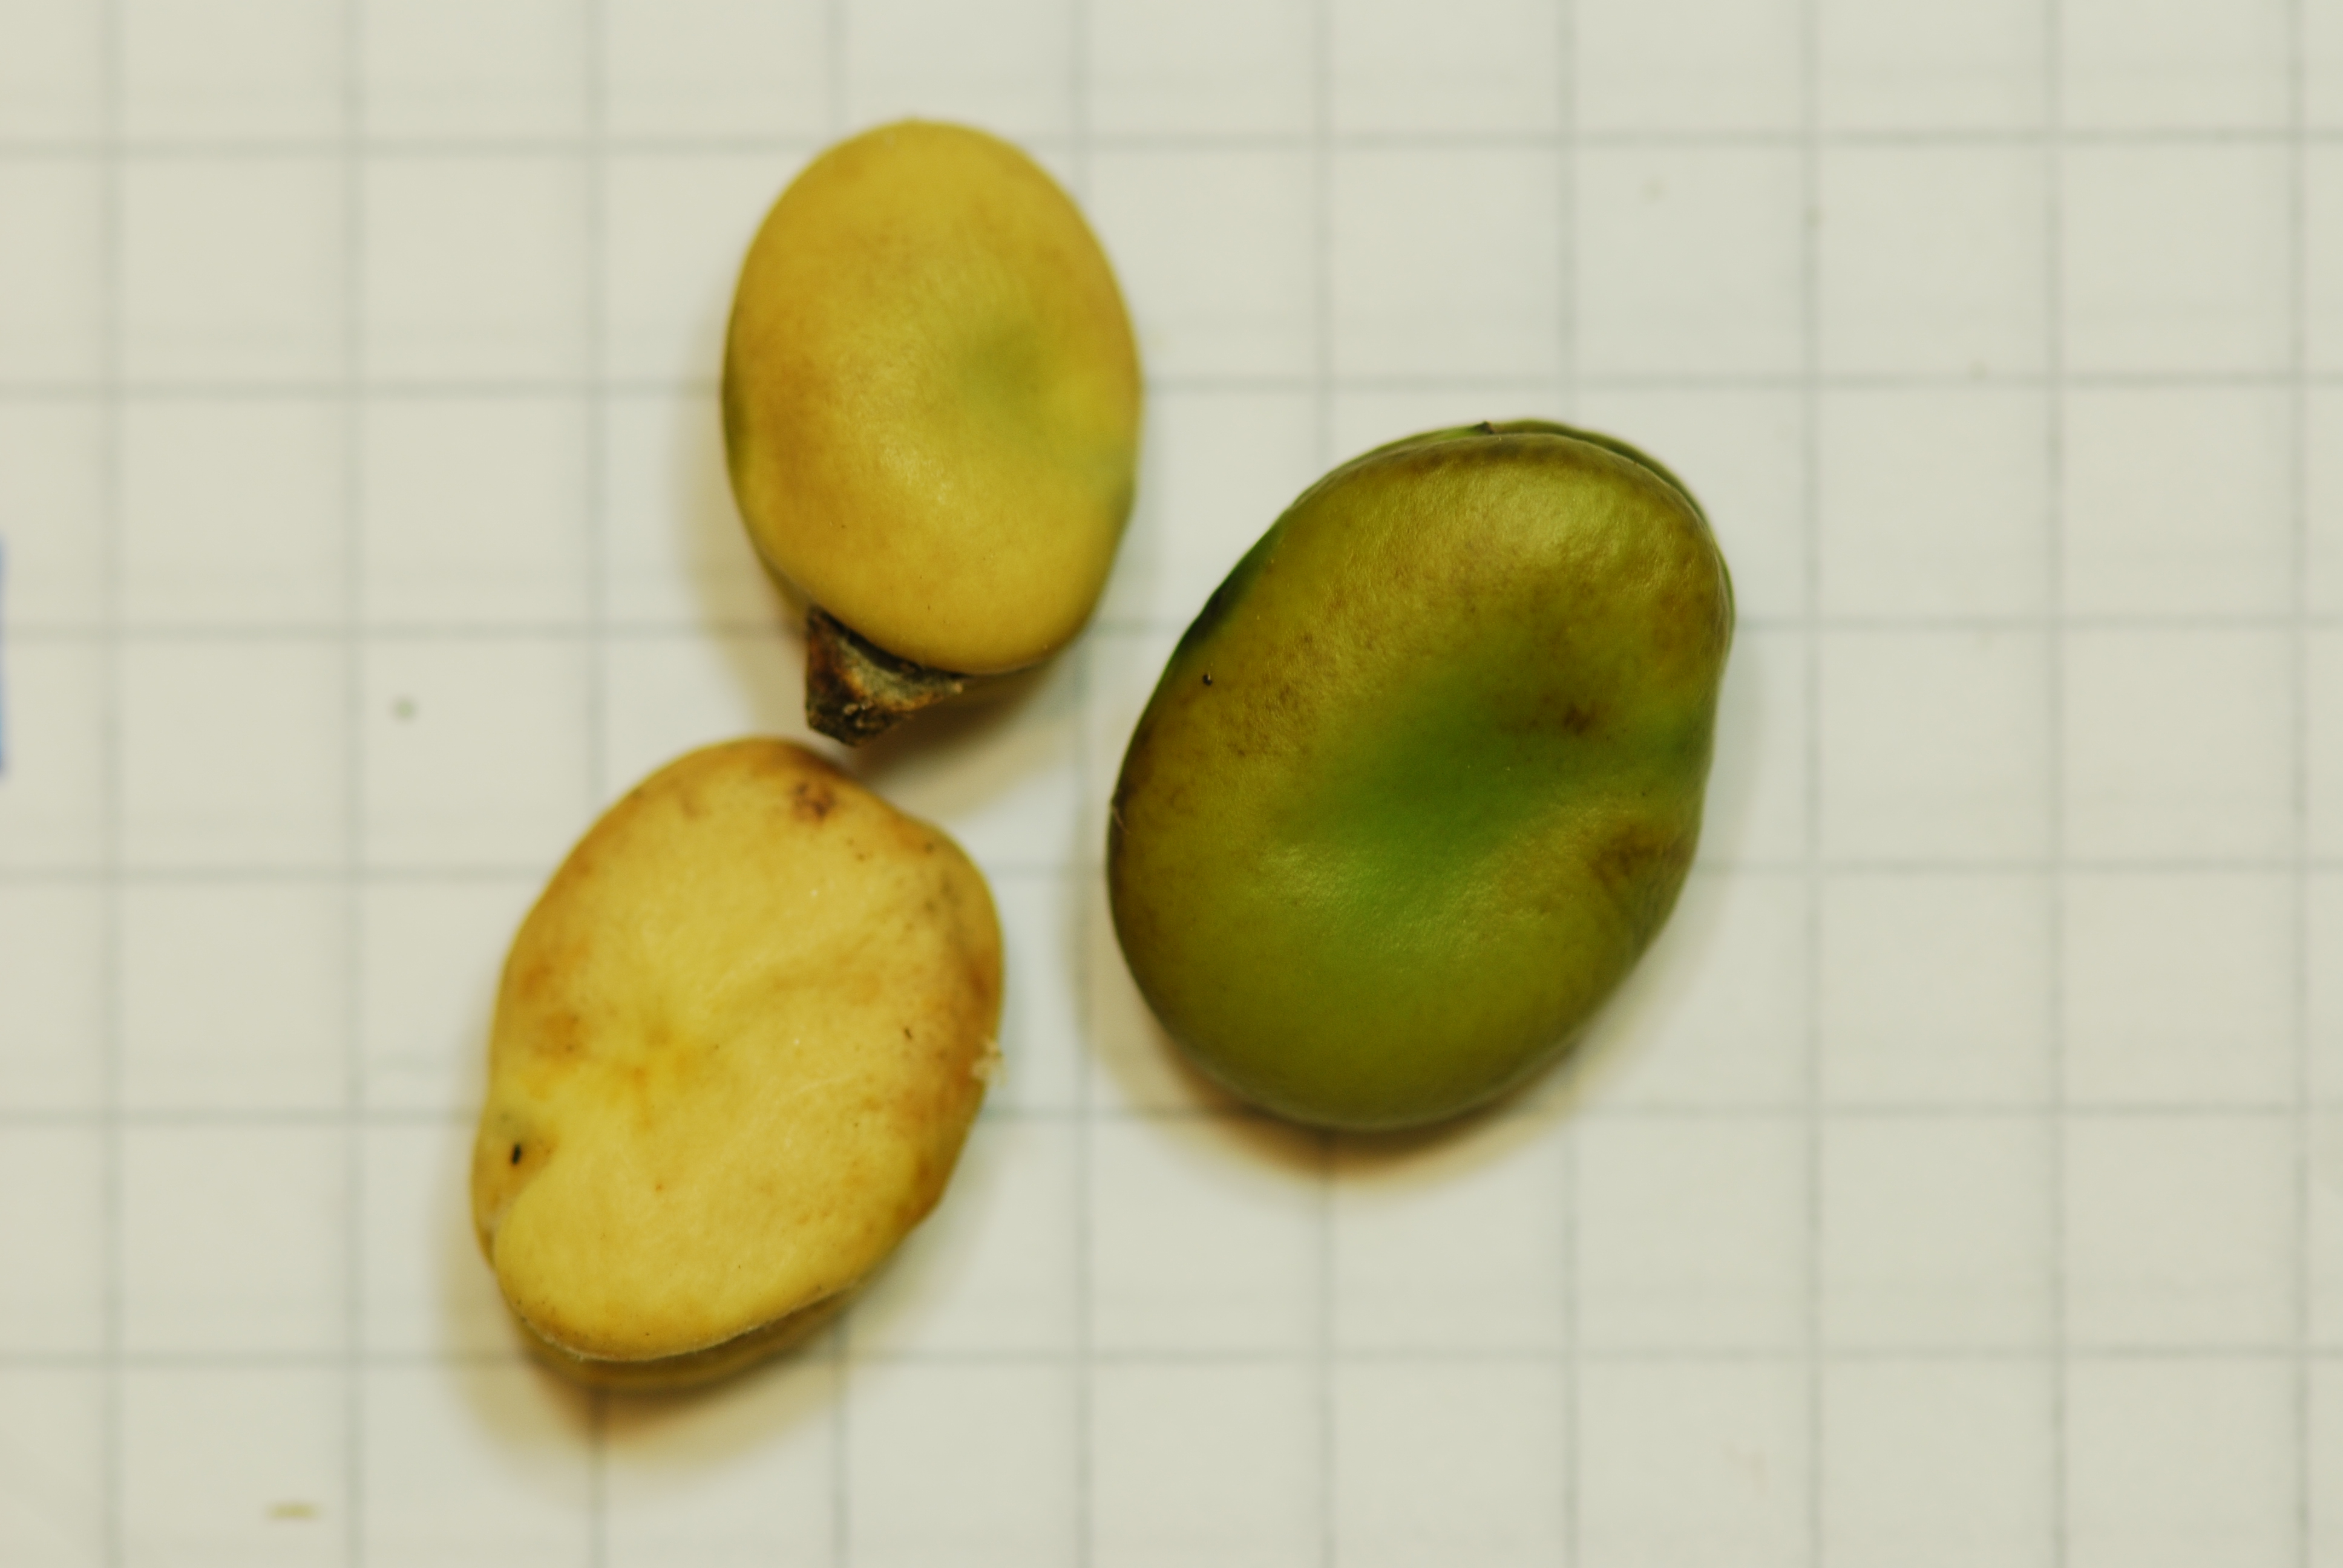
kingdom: Plantae
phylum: Tracheophyta
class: Magnoliopsida
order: Fabales
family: Fabaceae
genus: Vicia
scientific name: Vicia faba
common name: Broad bean
